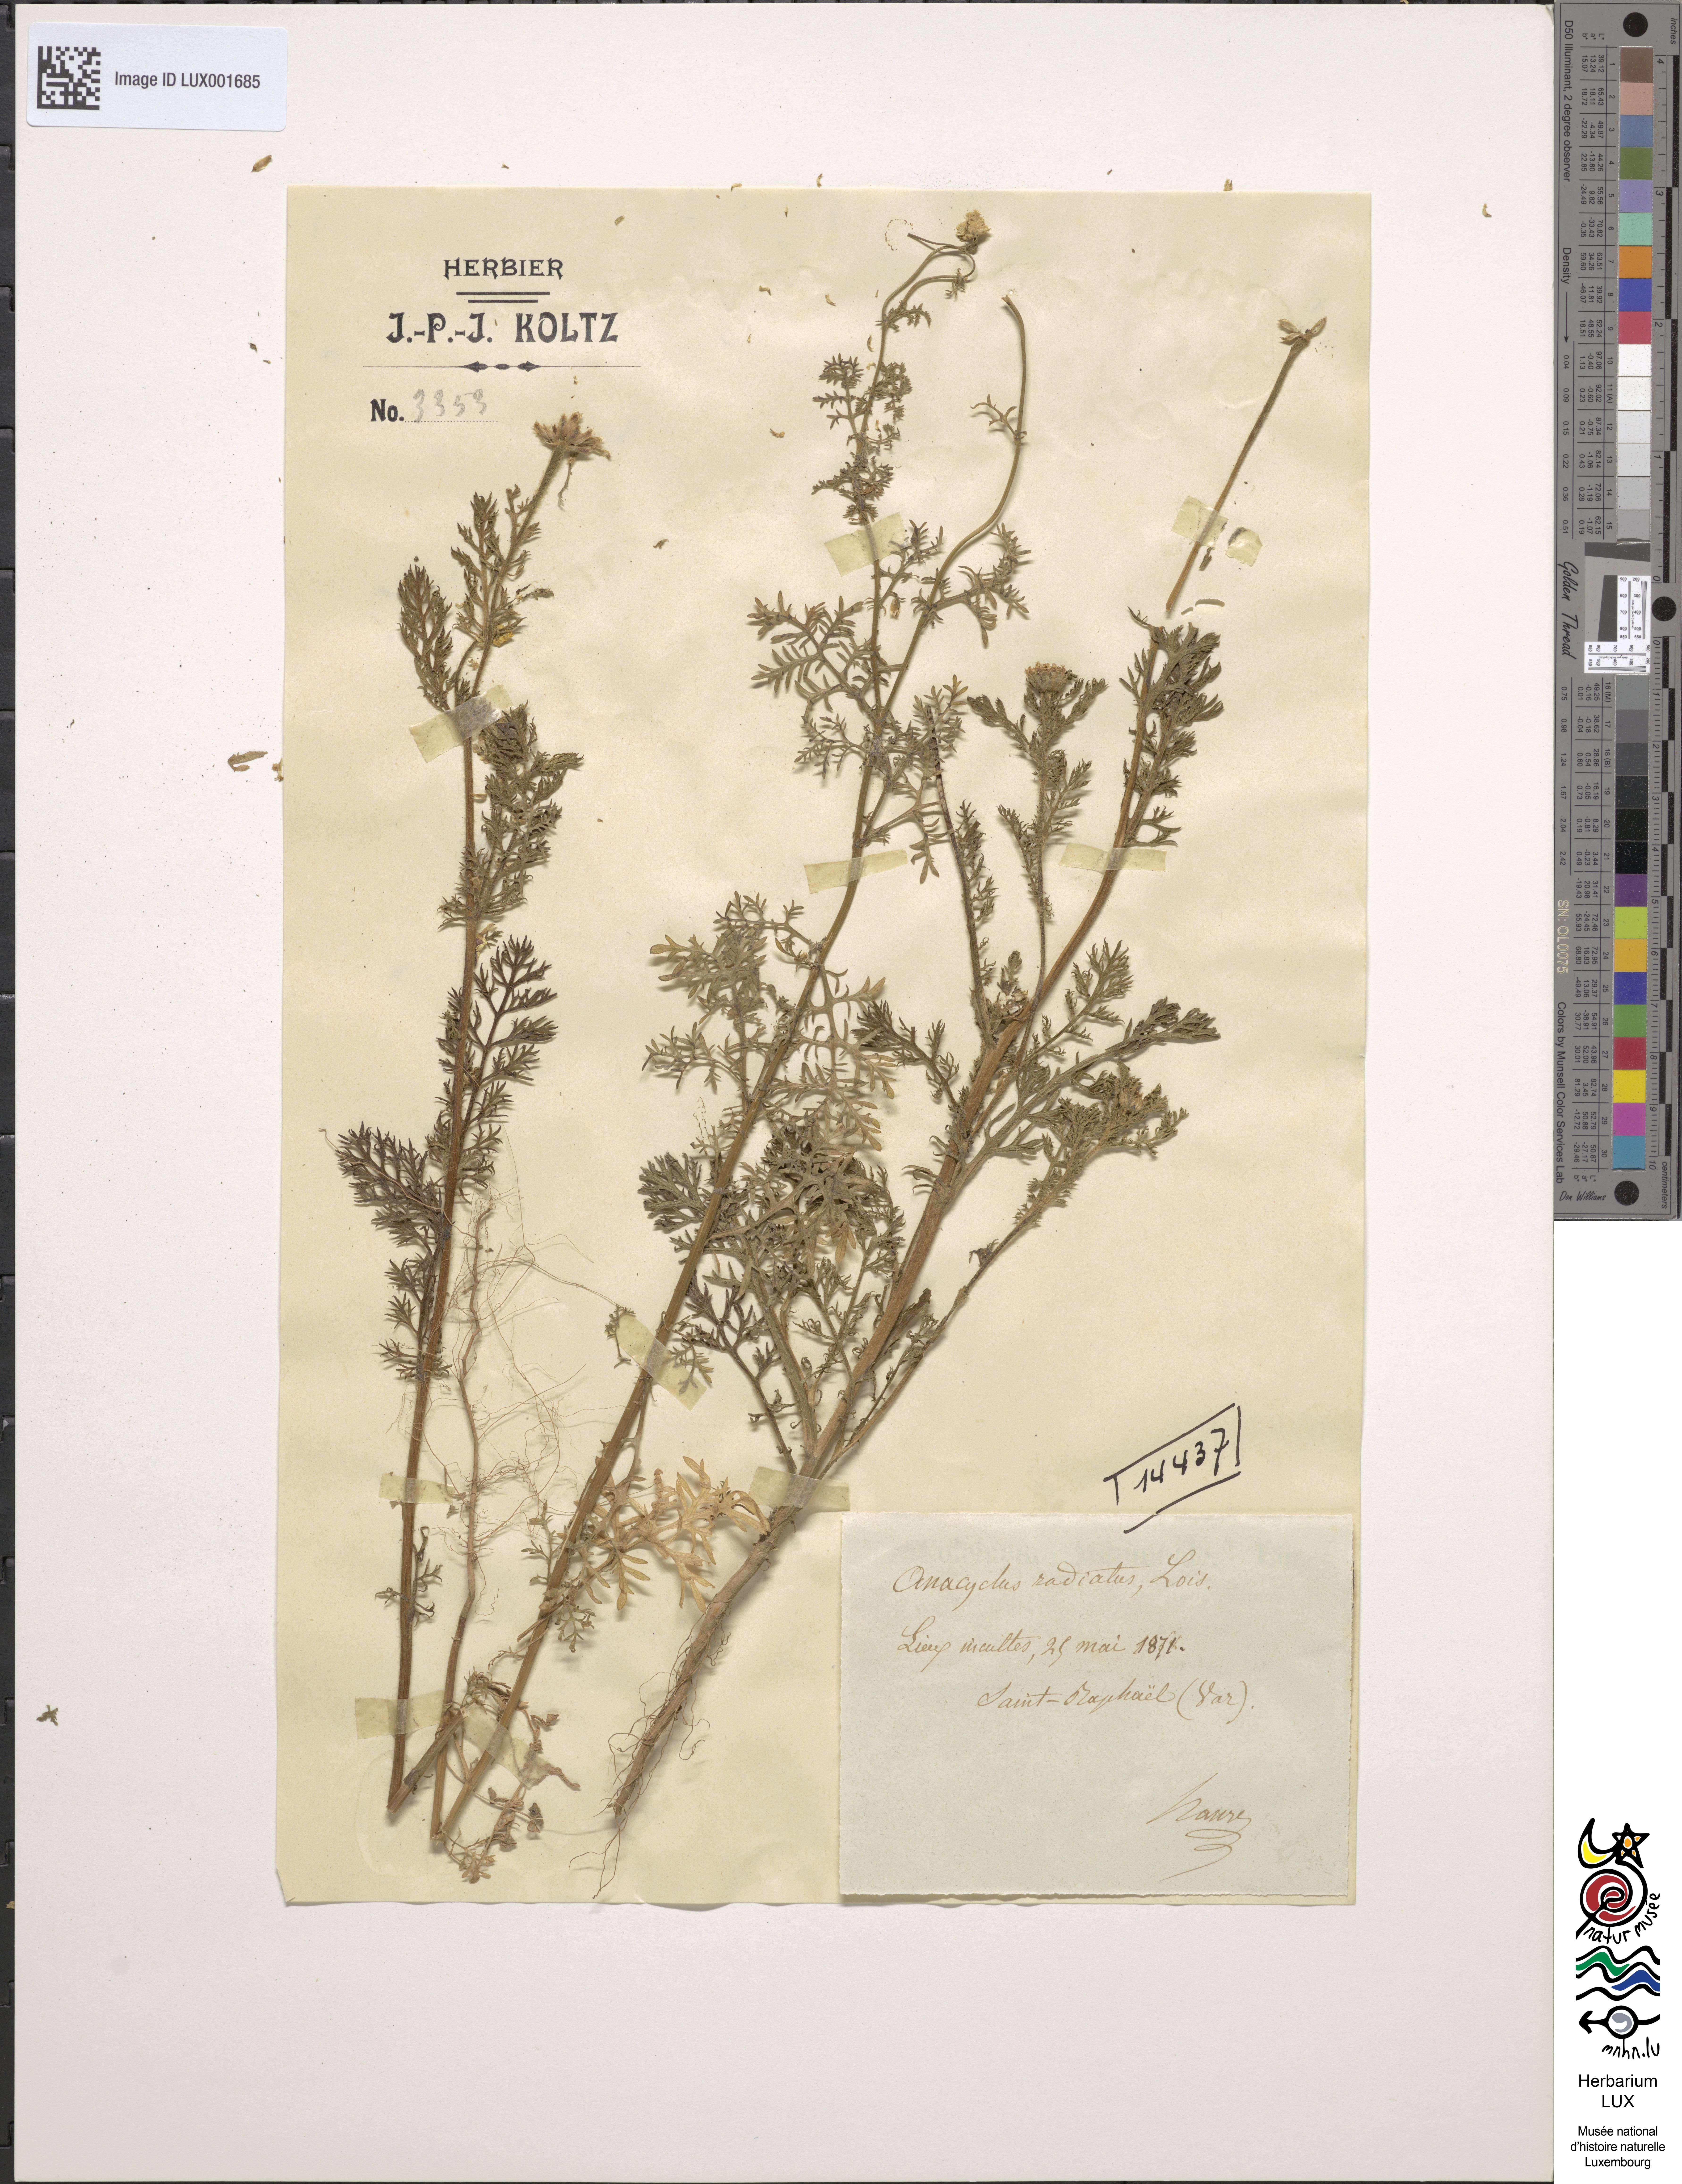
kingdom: Plantae
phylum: Tracheophyta
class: Magnoliopsida
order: Asterales
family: Asteraceae
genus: Anacyclus
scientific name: Anacyclus radiatus
